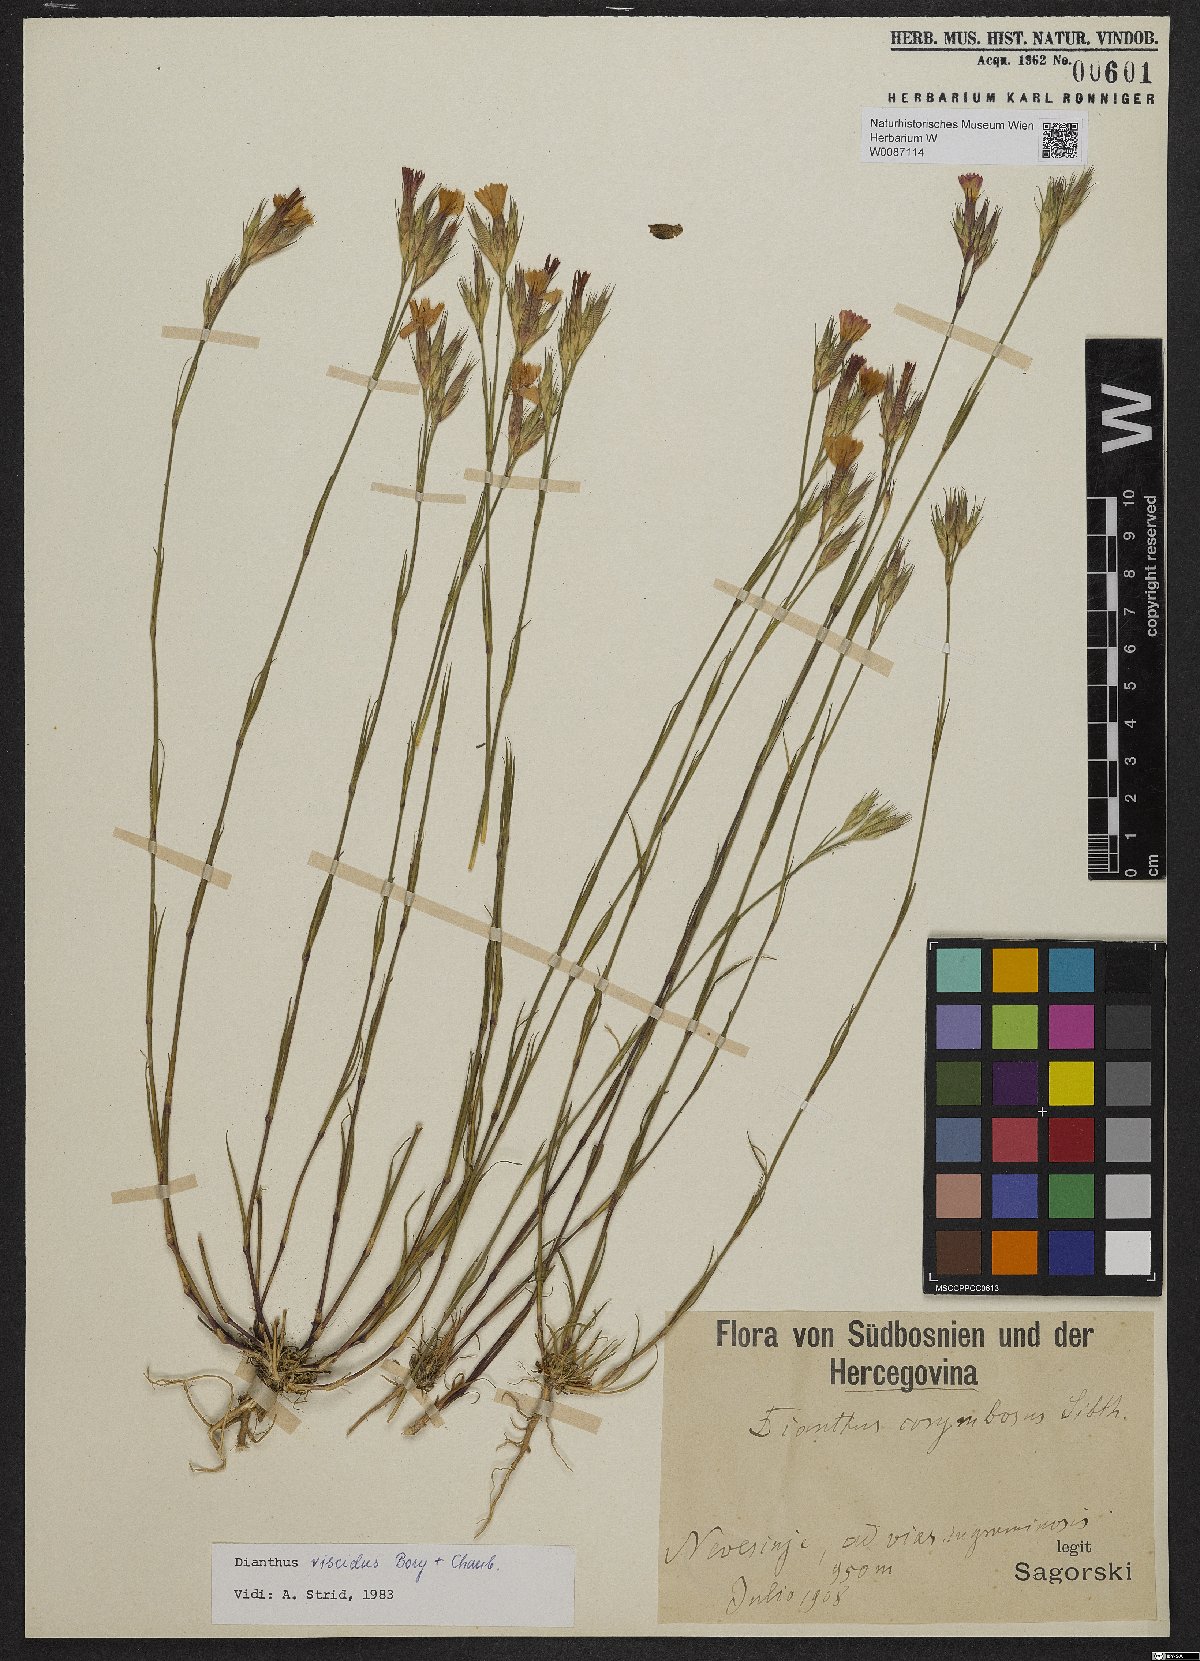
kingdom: Plantae
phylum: Tracheophyta
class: Magnoliopsida
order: Caryophyllales
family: Caryophyllaceae
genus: Dianthus
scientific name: Dianthus viscidus
